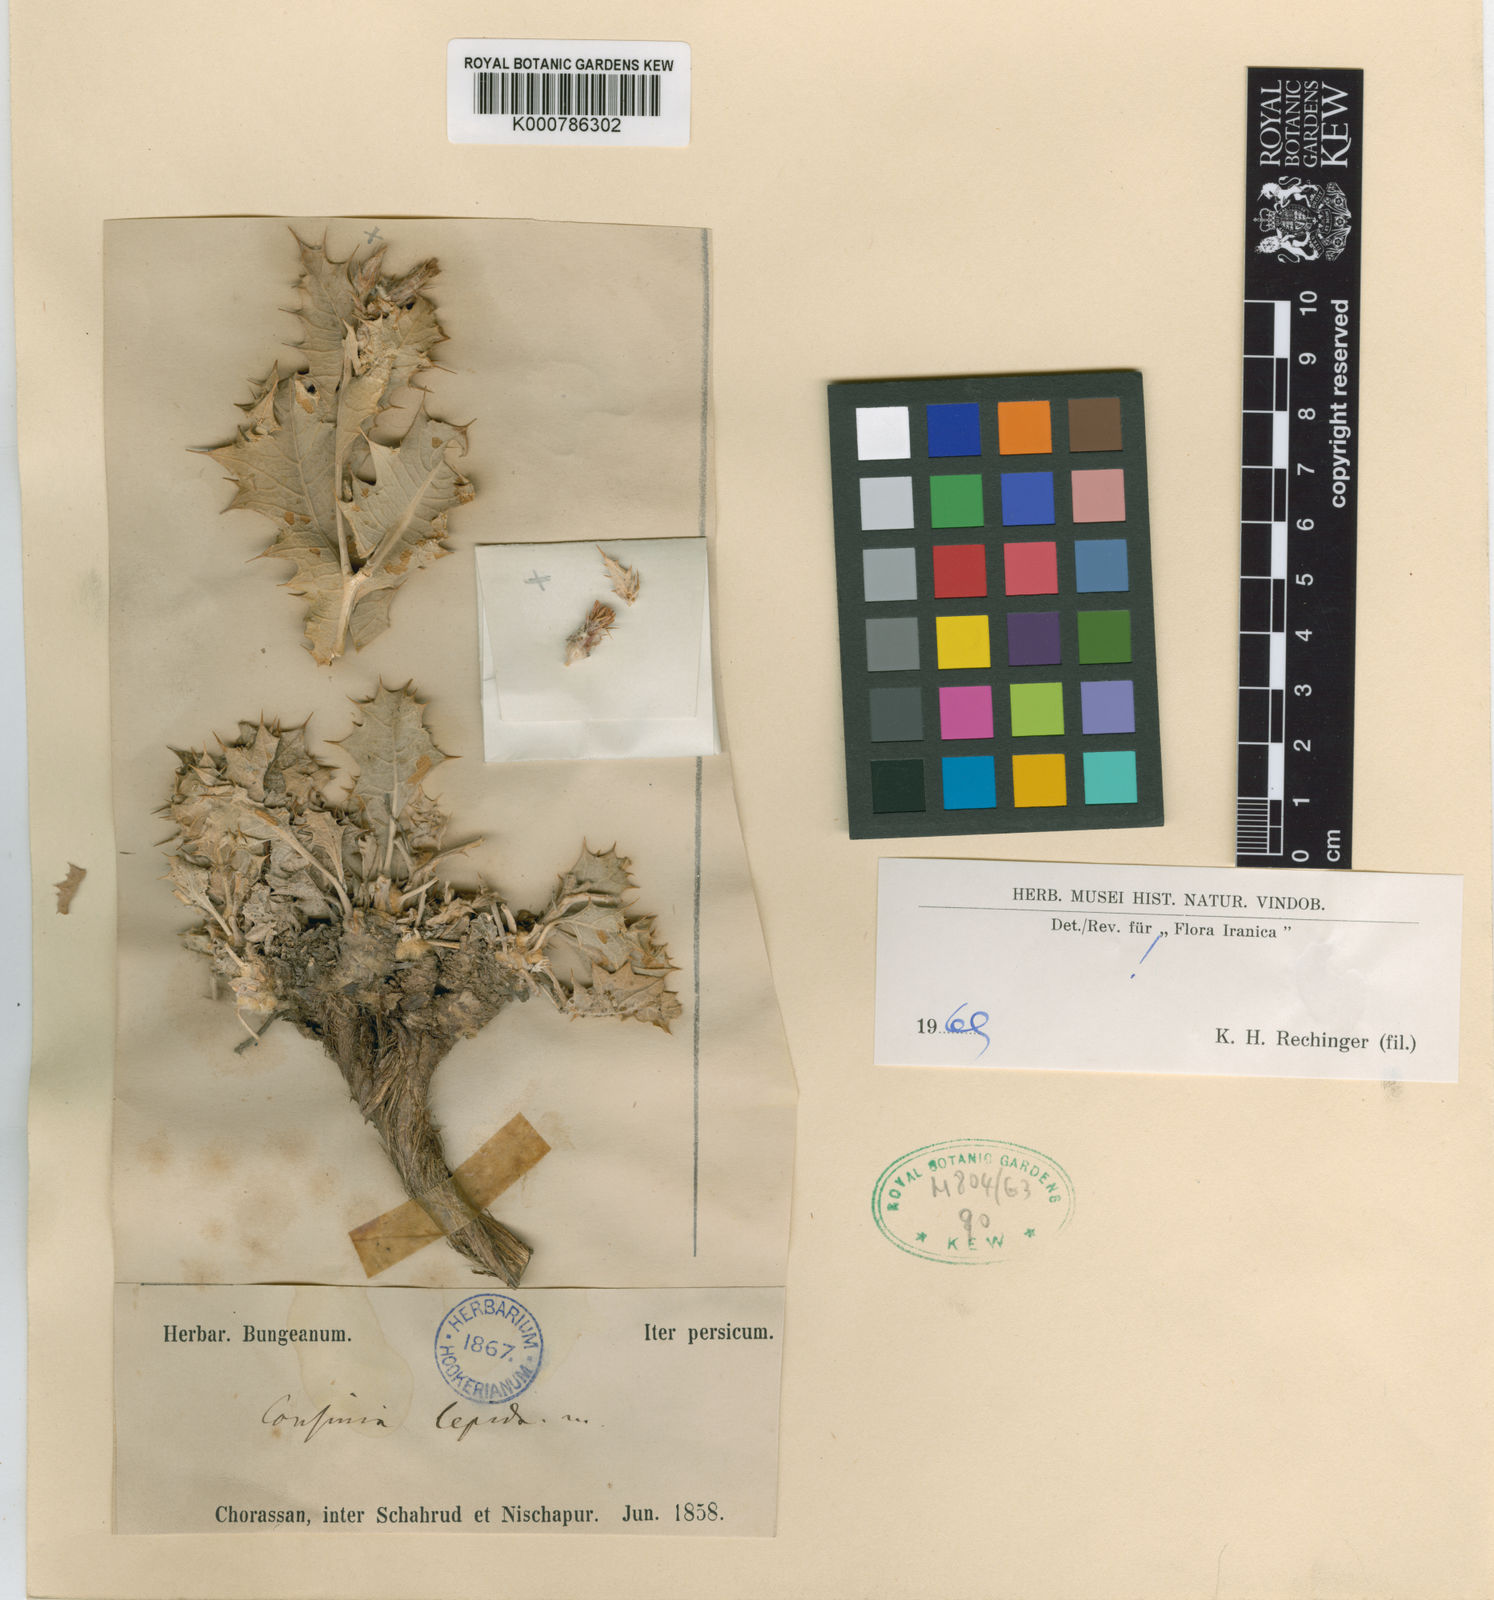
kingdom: Plantae
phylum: Tracheophyta
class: Magnoliopsida
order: Asterales
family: Asteraceae
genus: Cousinia
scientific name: Cousinia lepida
